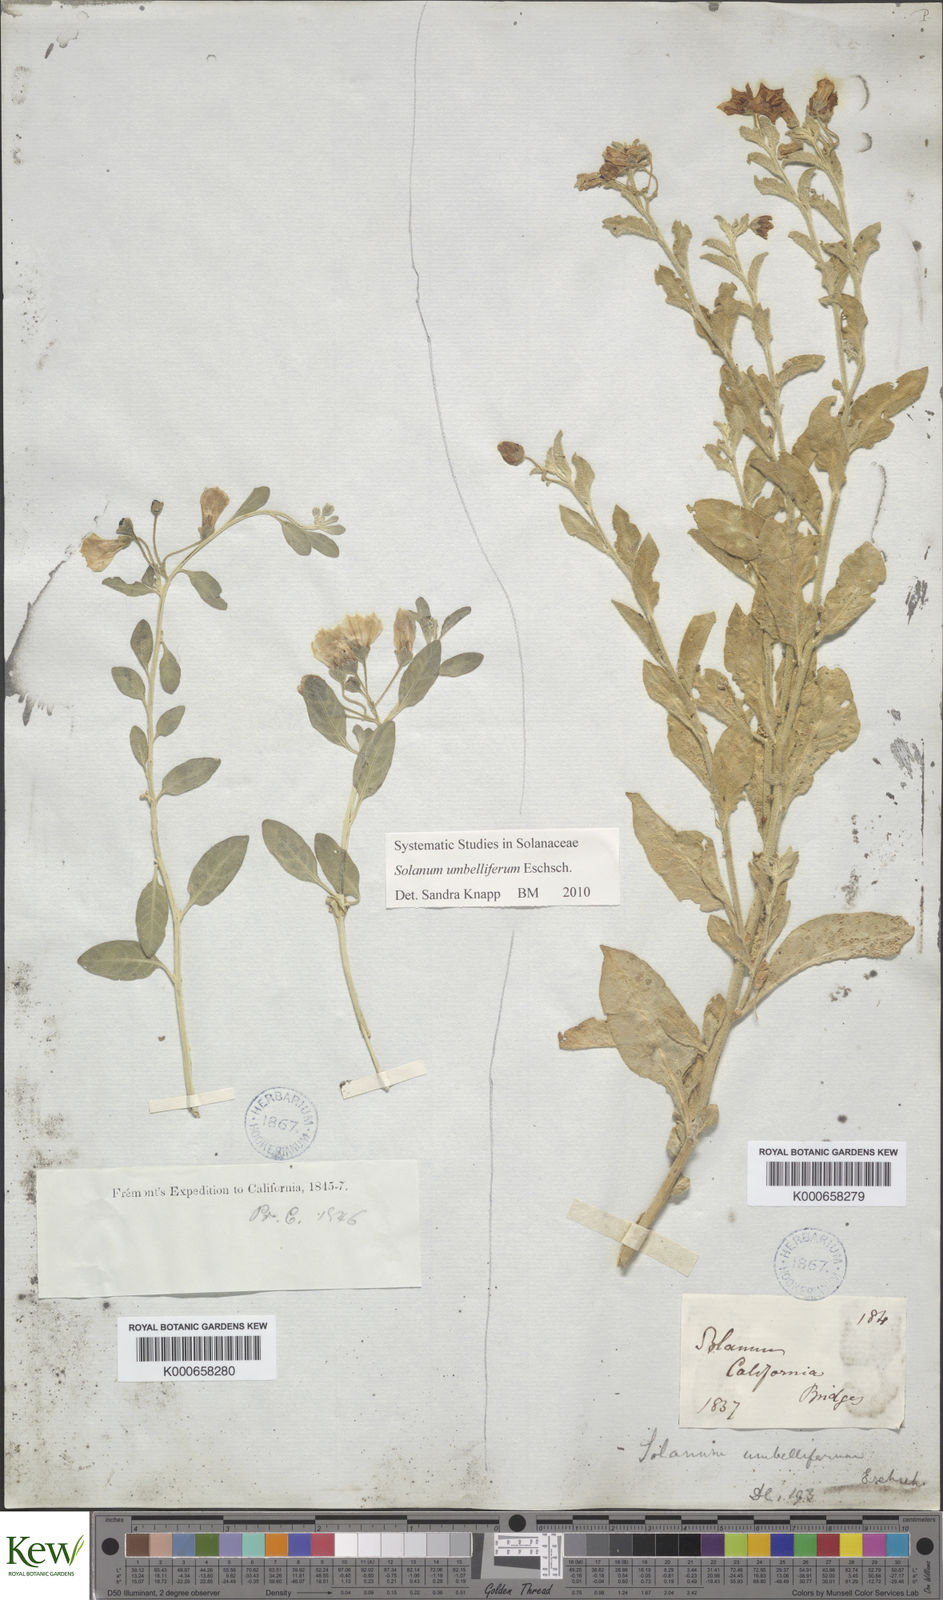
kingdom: Plantae
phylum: Tracheophyta
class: Magnoliopsida
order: Solanales
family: Solanaceae
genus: Solanum
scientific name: Solanum umbelliferum
